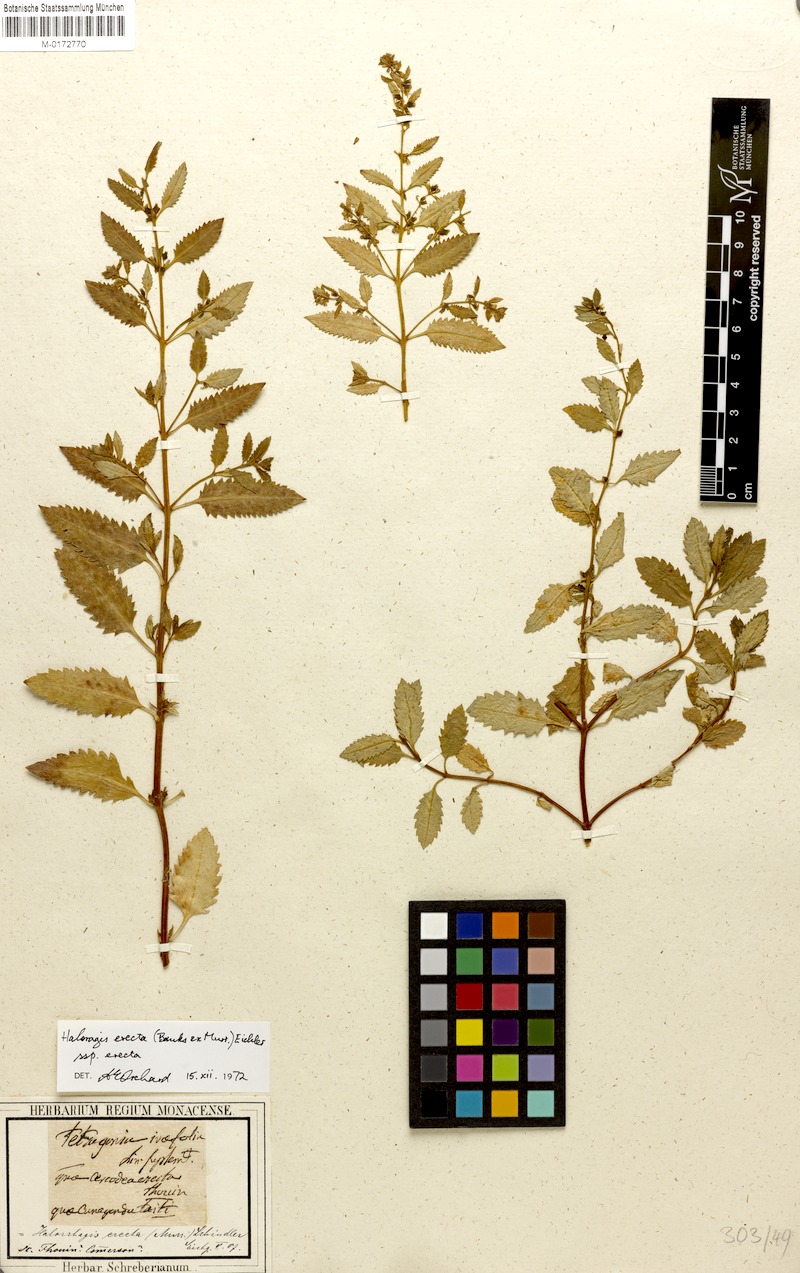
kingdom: Plantae
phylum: Tracheophyta
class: Magnoliopsida
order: Saxifragales
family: Haloragaceae
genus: Haloragis
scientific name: Haloragis erecta
